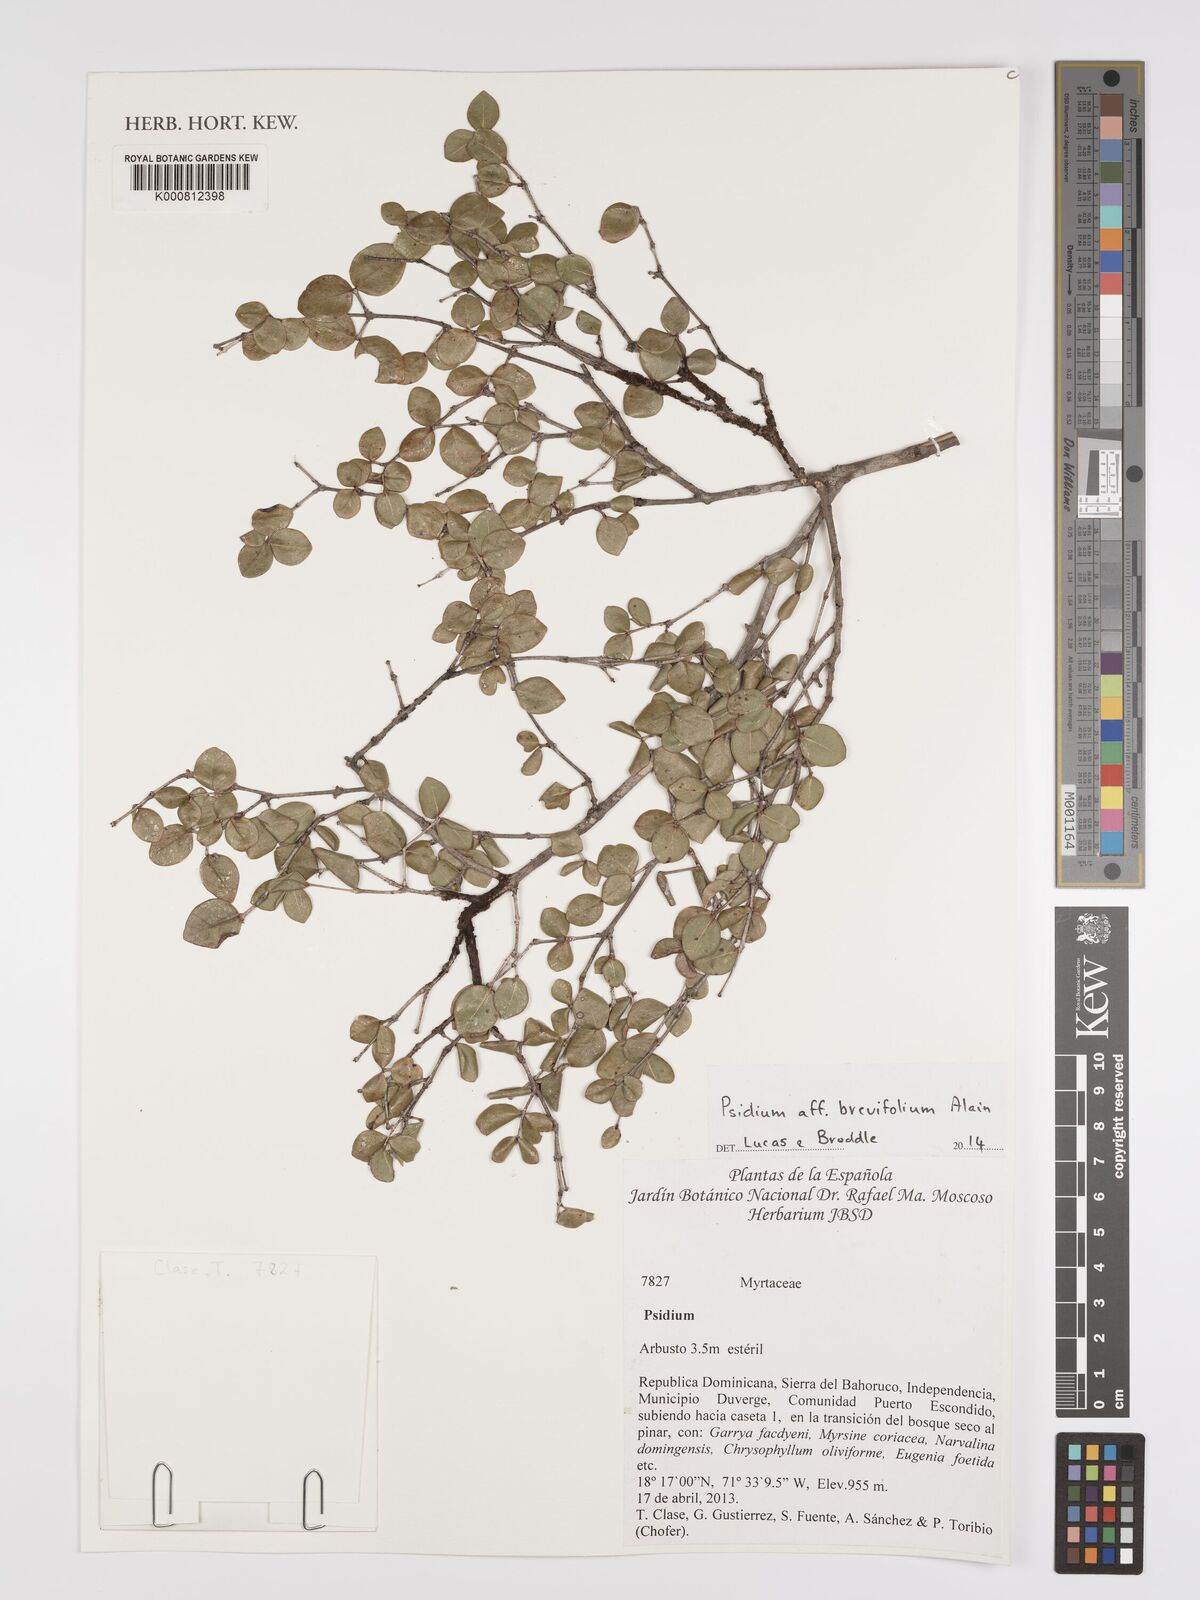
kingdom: Plantae
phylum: Tracheophyta
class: Magnoliopsida
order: Myrtales
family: Myrtaceae
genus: Psidium
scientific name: Psidium brevifolium
